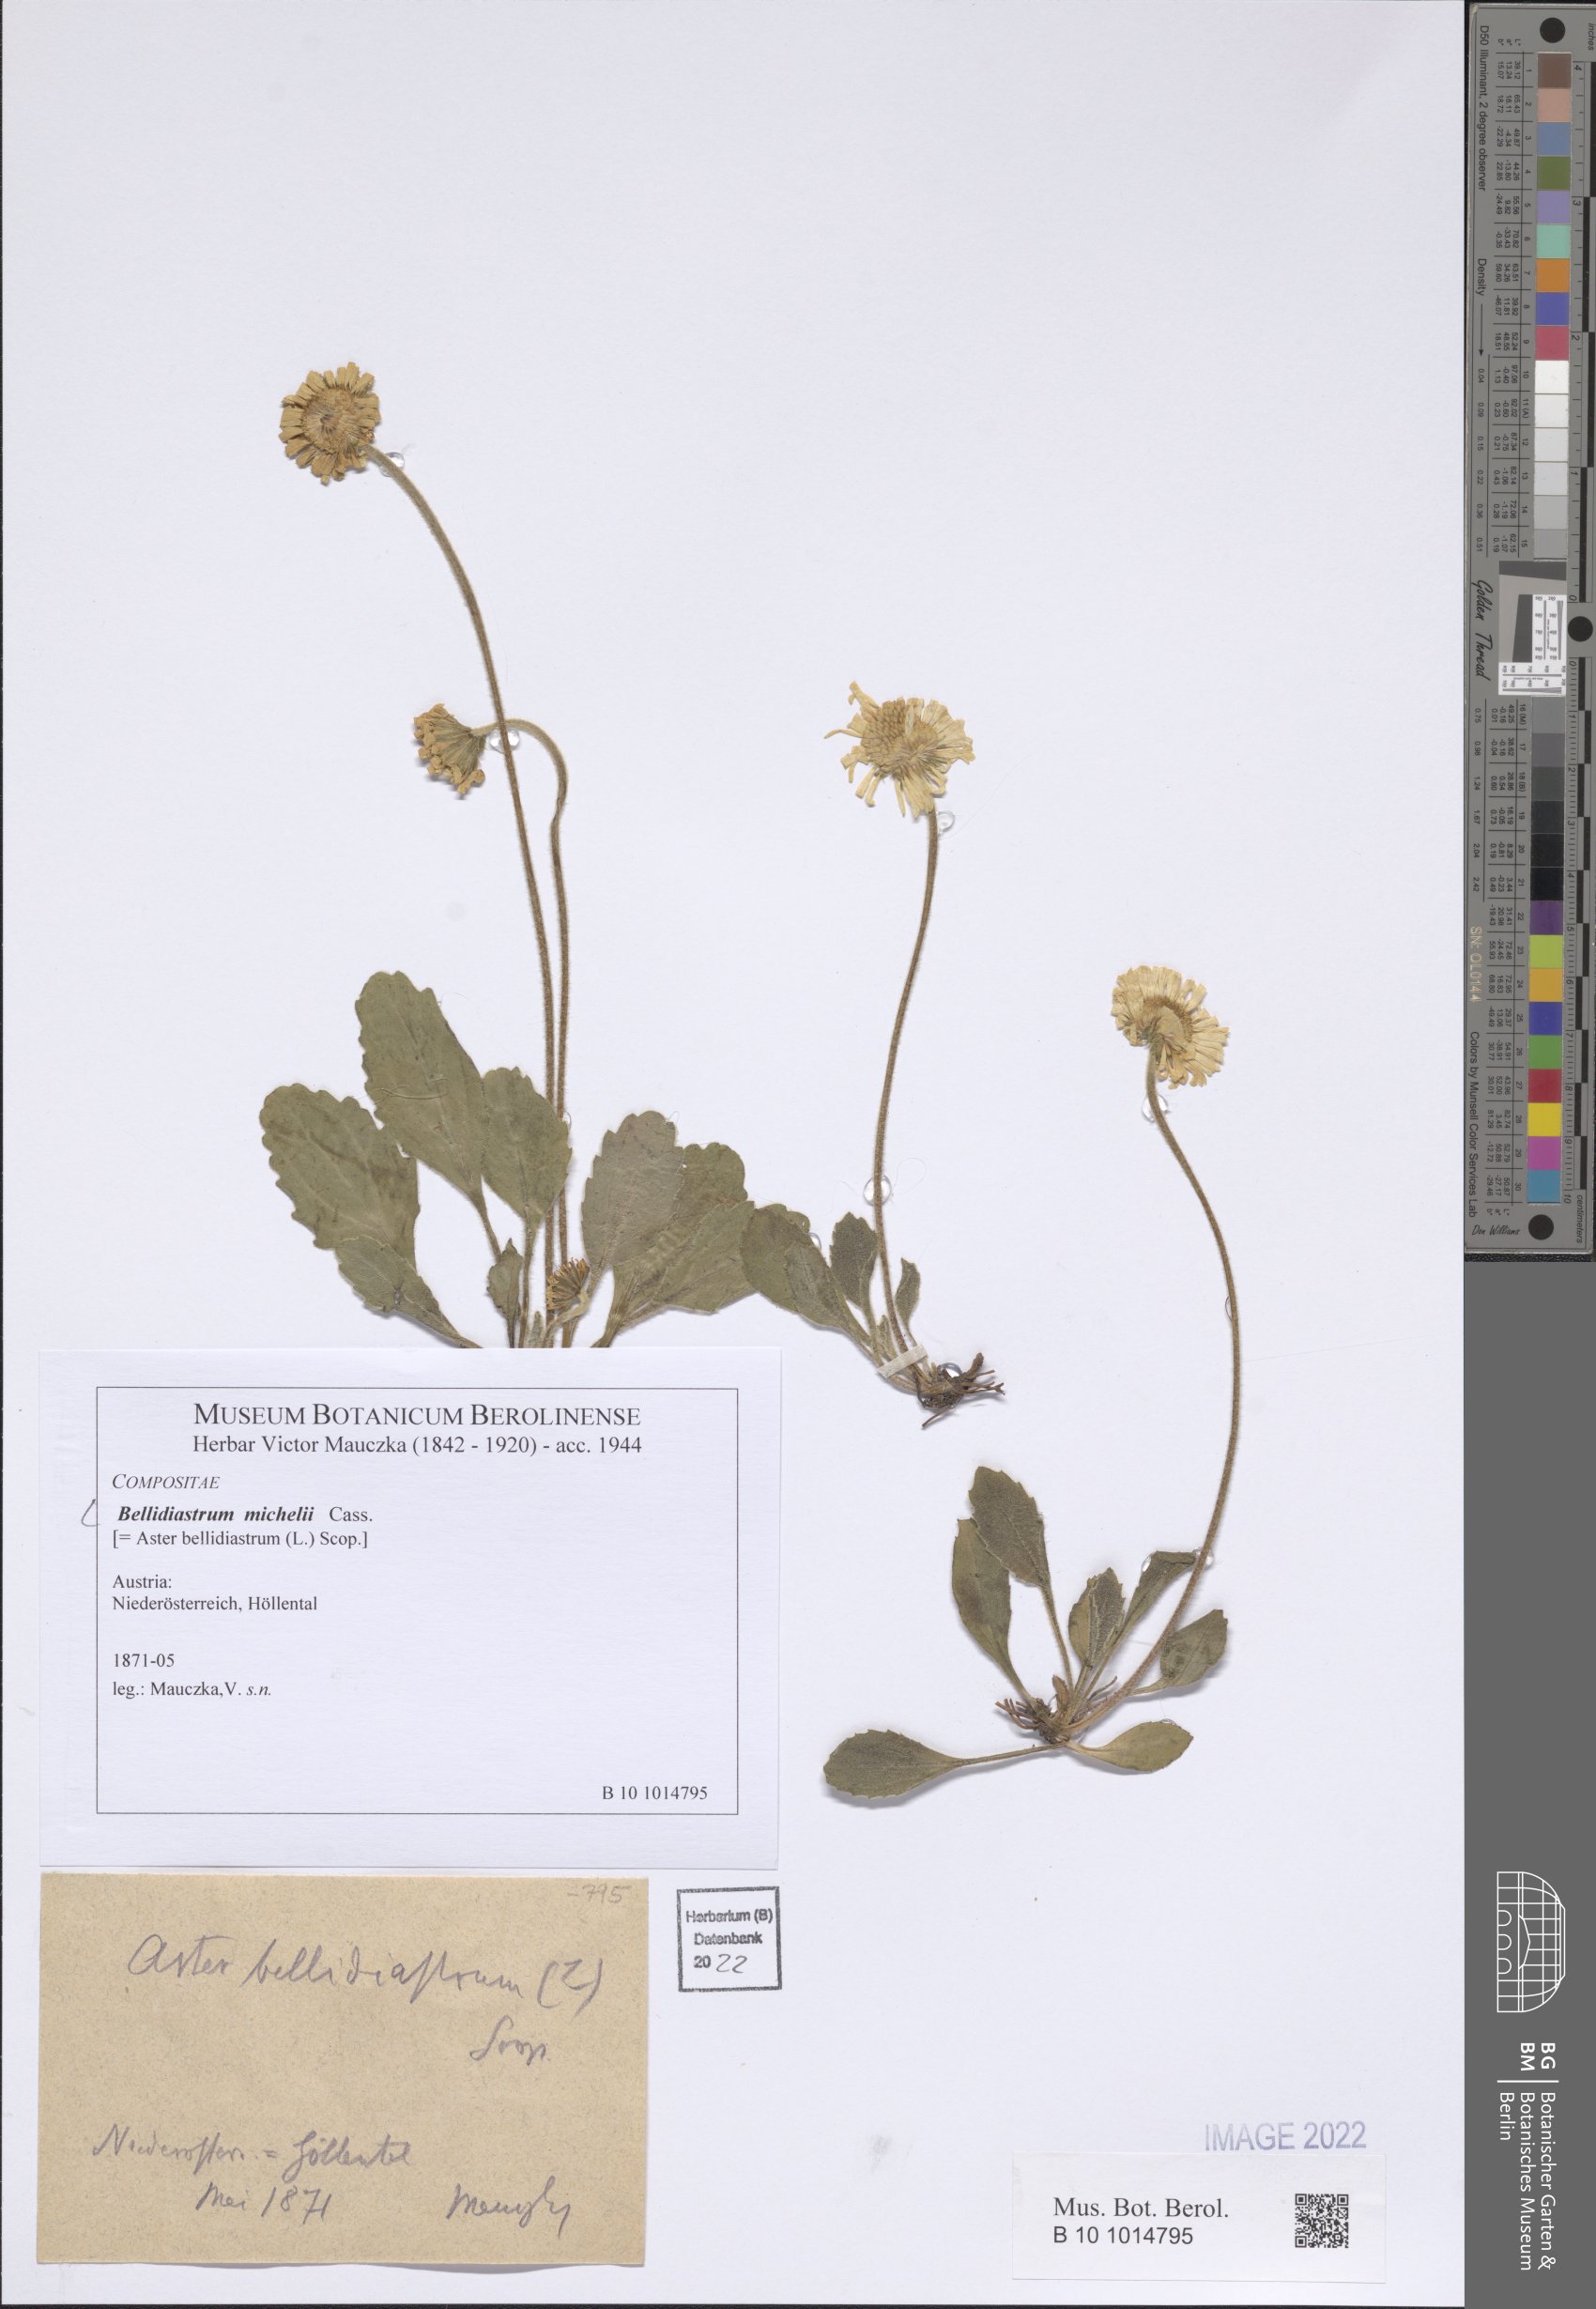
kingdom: Plantae
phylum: Tracheophyta
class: Magnoliopsida
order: Asterales
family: Asteraceae
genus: Bellidiastrum
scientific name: Bellidiastrum michelii
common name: Daisy-star aster
